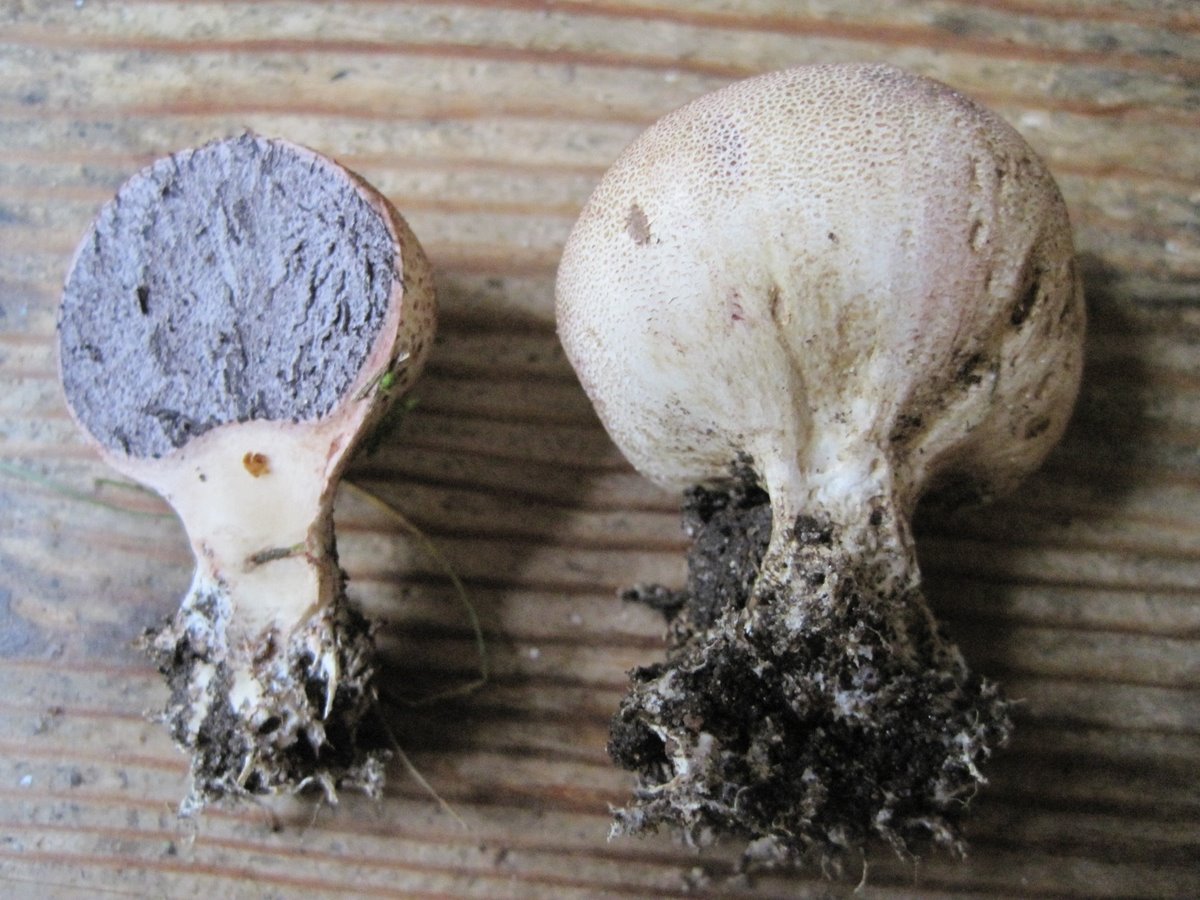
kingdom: Fungi
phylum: Basidiomycota
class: Agaricomycetes
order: Boletales
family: Sclerodermataceae
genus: Scleroderma
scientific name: Scleroderma verrucosum
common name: stilket bruskbold
